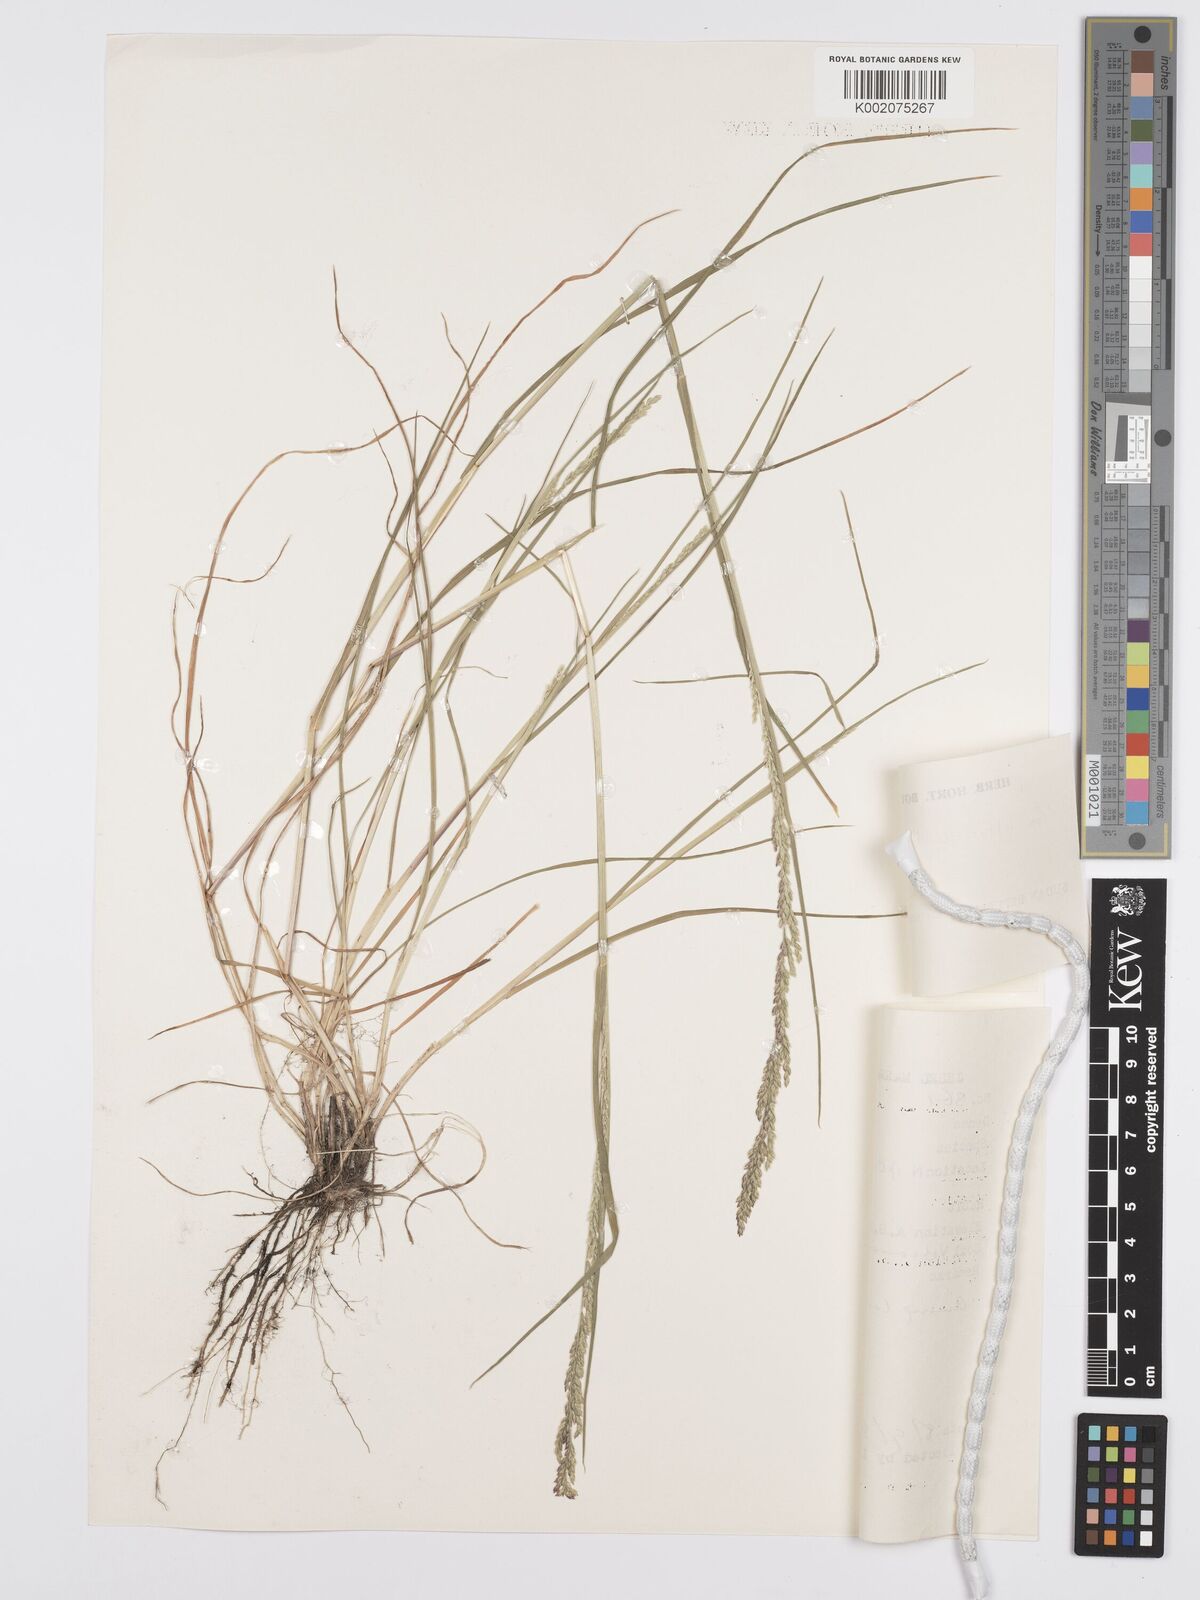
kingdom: Plantae
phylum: Tracheophyta
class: Liliopsida
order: Poales
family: Poaceae
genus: Poa
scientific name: Poa leptoclada
